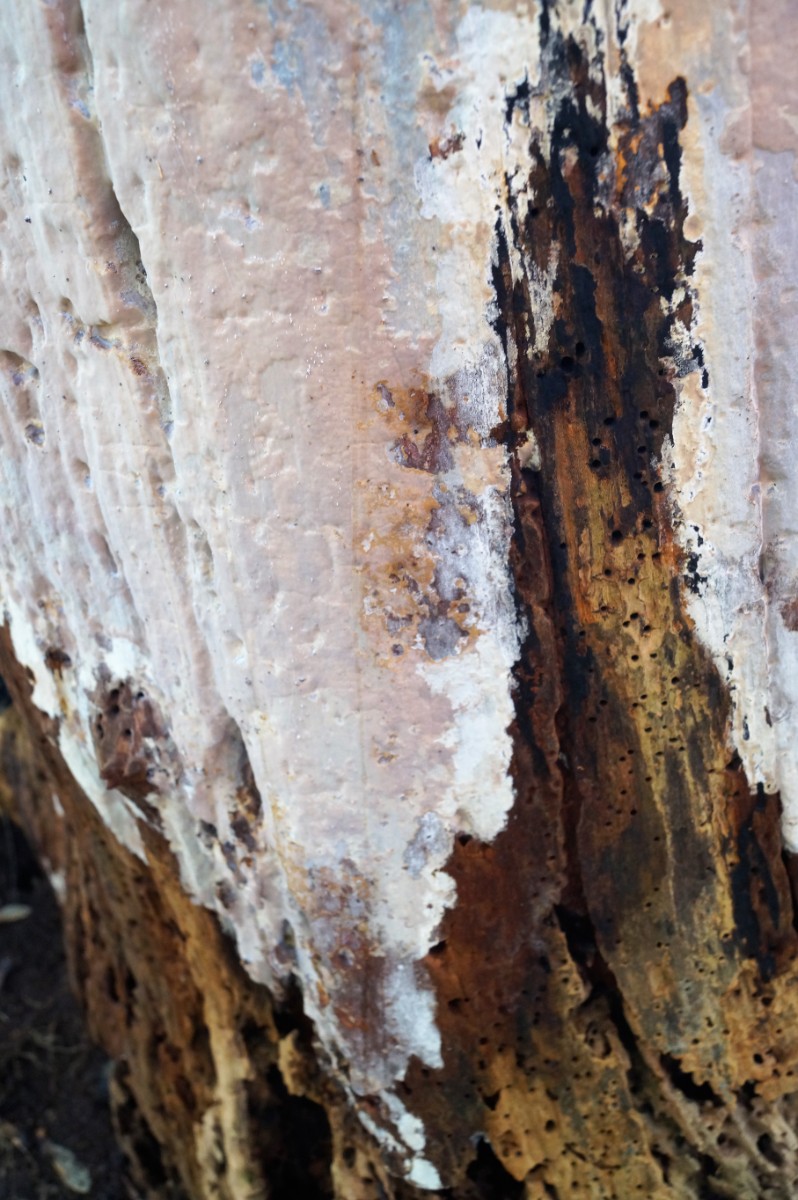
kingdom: Fungi
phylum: Basidiomycota
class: Agaricomycetes
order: Russulales
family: Peniophoraceae
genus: Scytinostroma
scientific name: Scytinostroma hemidichophyticum
